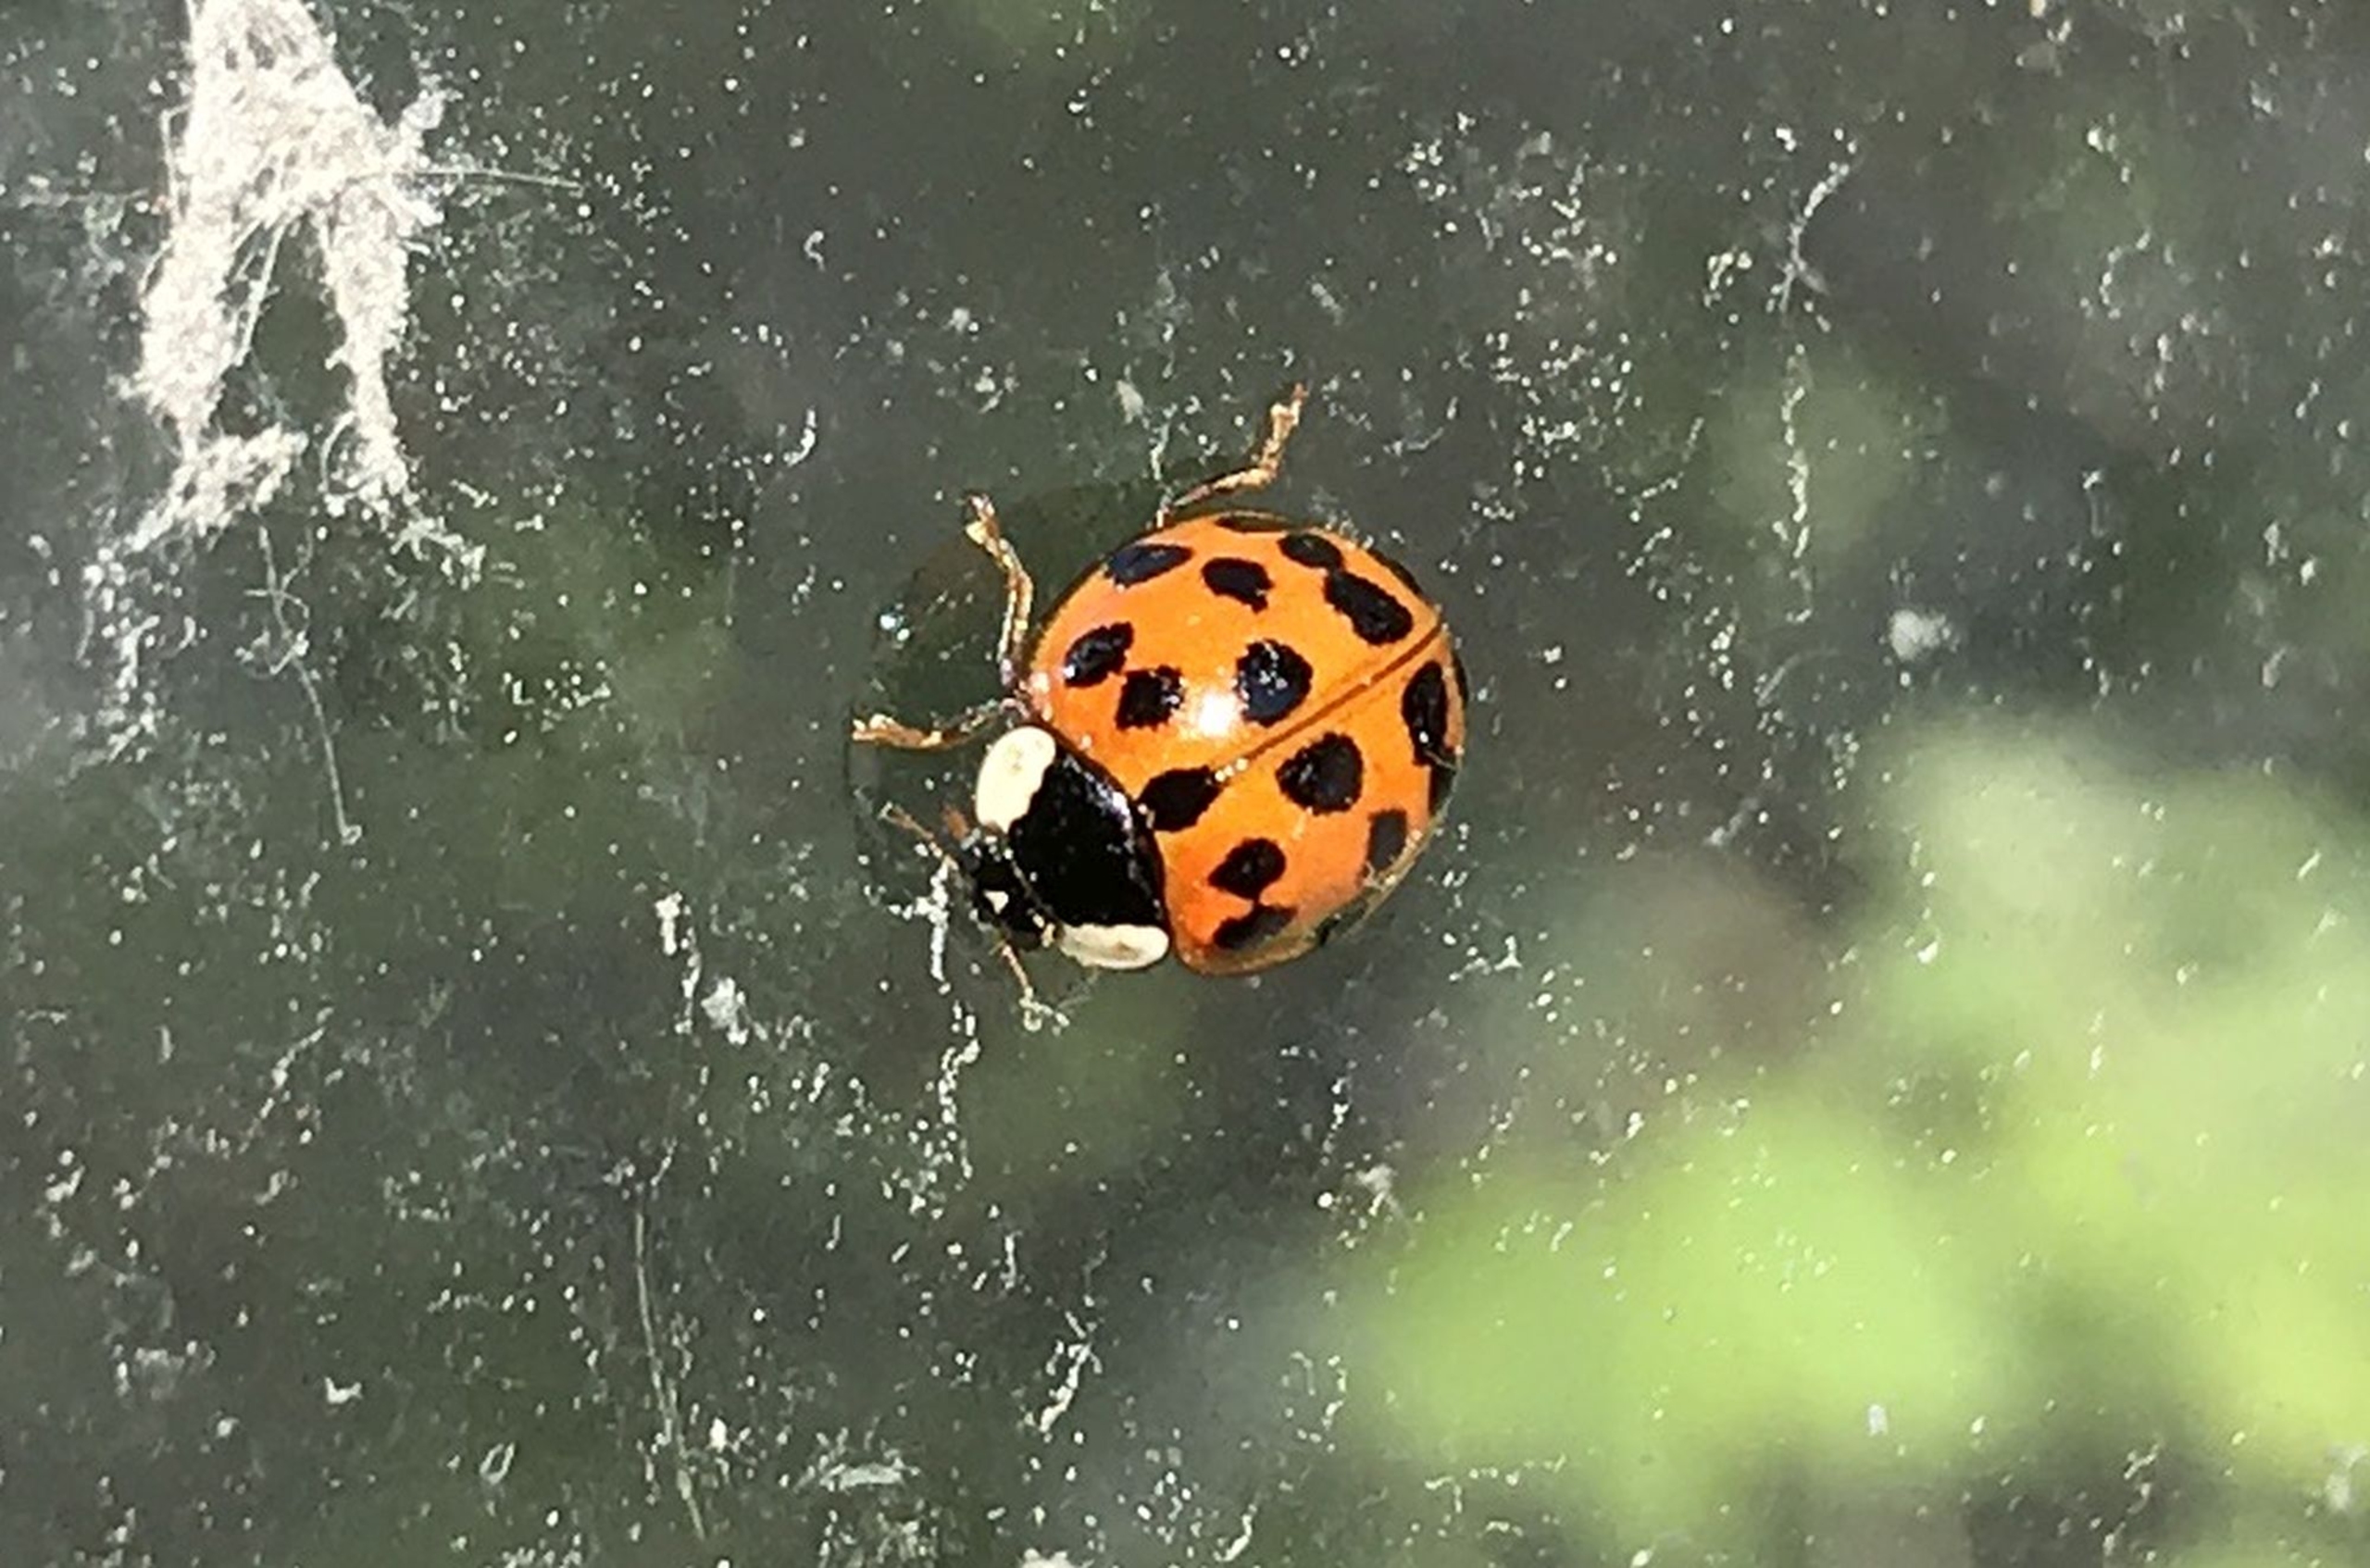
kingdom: Animalia
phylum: Arthropoda
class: Insecta
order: Coleoptera
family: Coccinellidae
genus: Harmonia
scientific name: Harmonia axyridis
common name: Harlekinmariehøne
